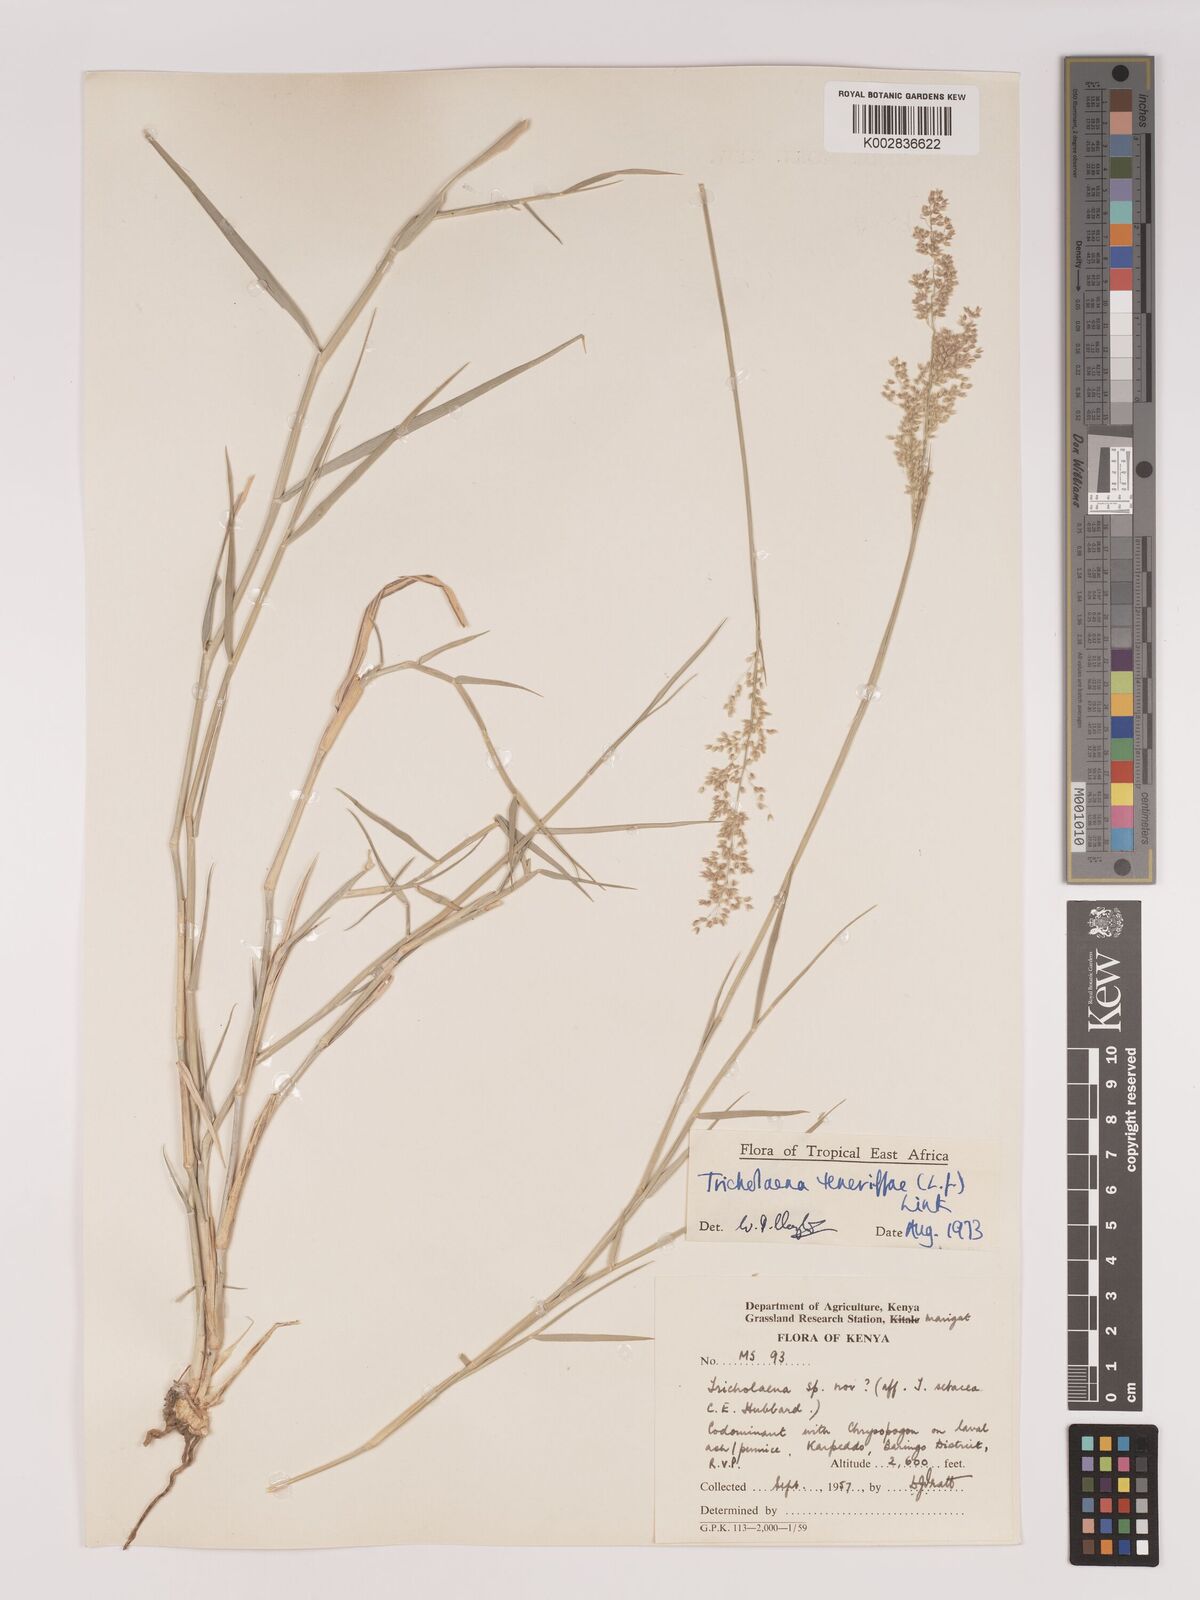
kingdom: Plantae
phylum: Tracheophyta
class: Liliopsida
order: Poales
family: Poaceae
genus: Tricholaena
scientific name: Tricholaena teneriffae
